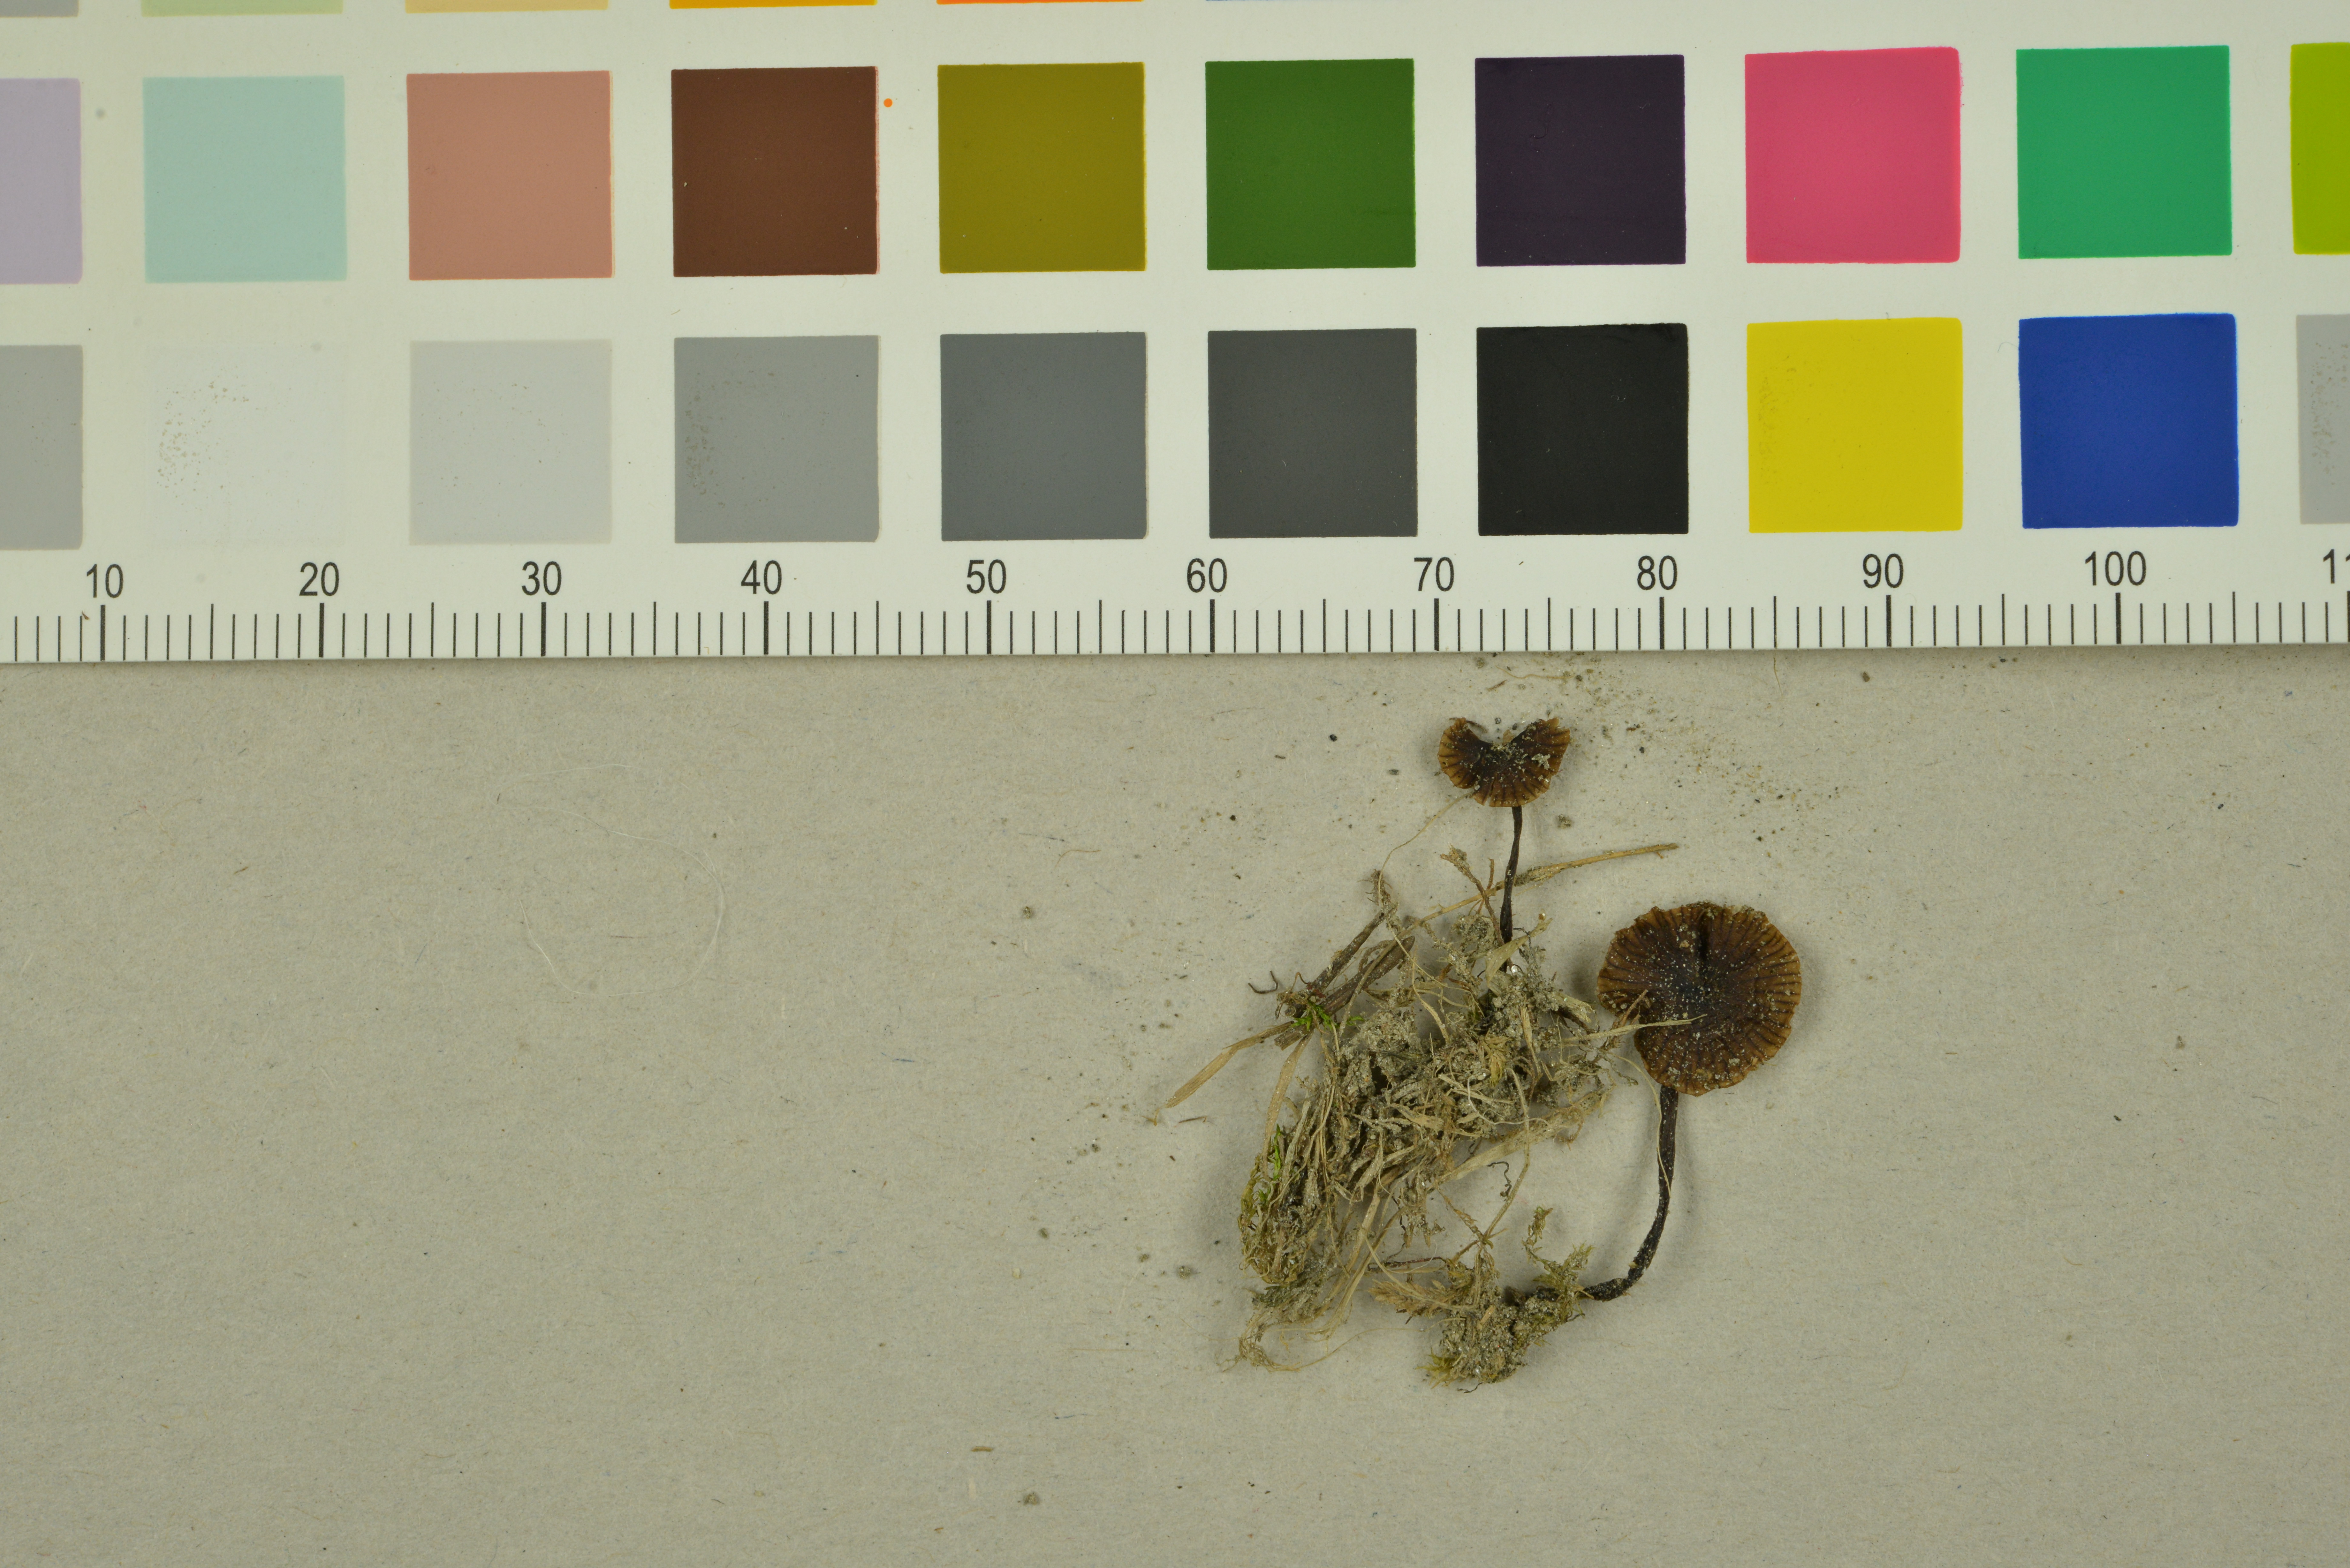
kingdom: Fungi
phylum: Basidiomycota
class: Agaricomycetes
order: Agaricales
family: Entolomataceae
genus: Entoloma
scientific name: Entoloma minutum
